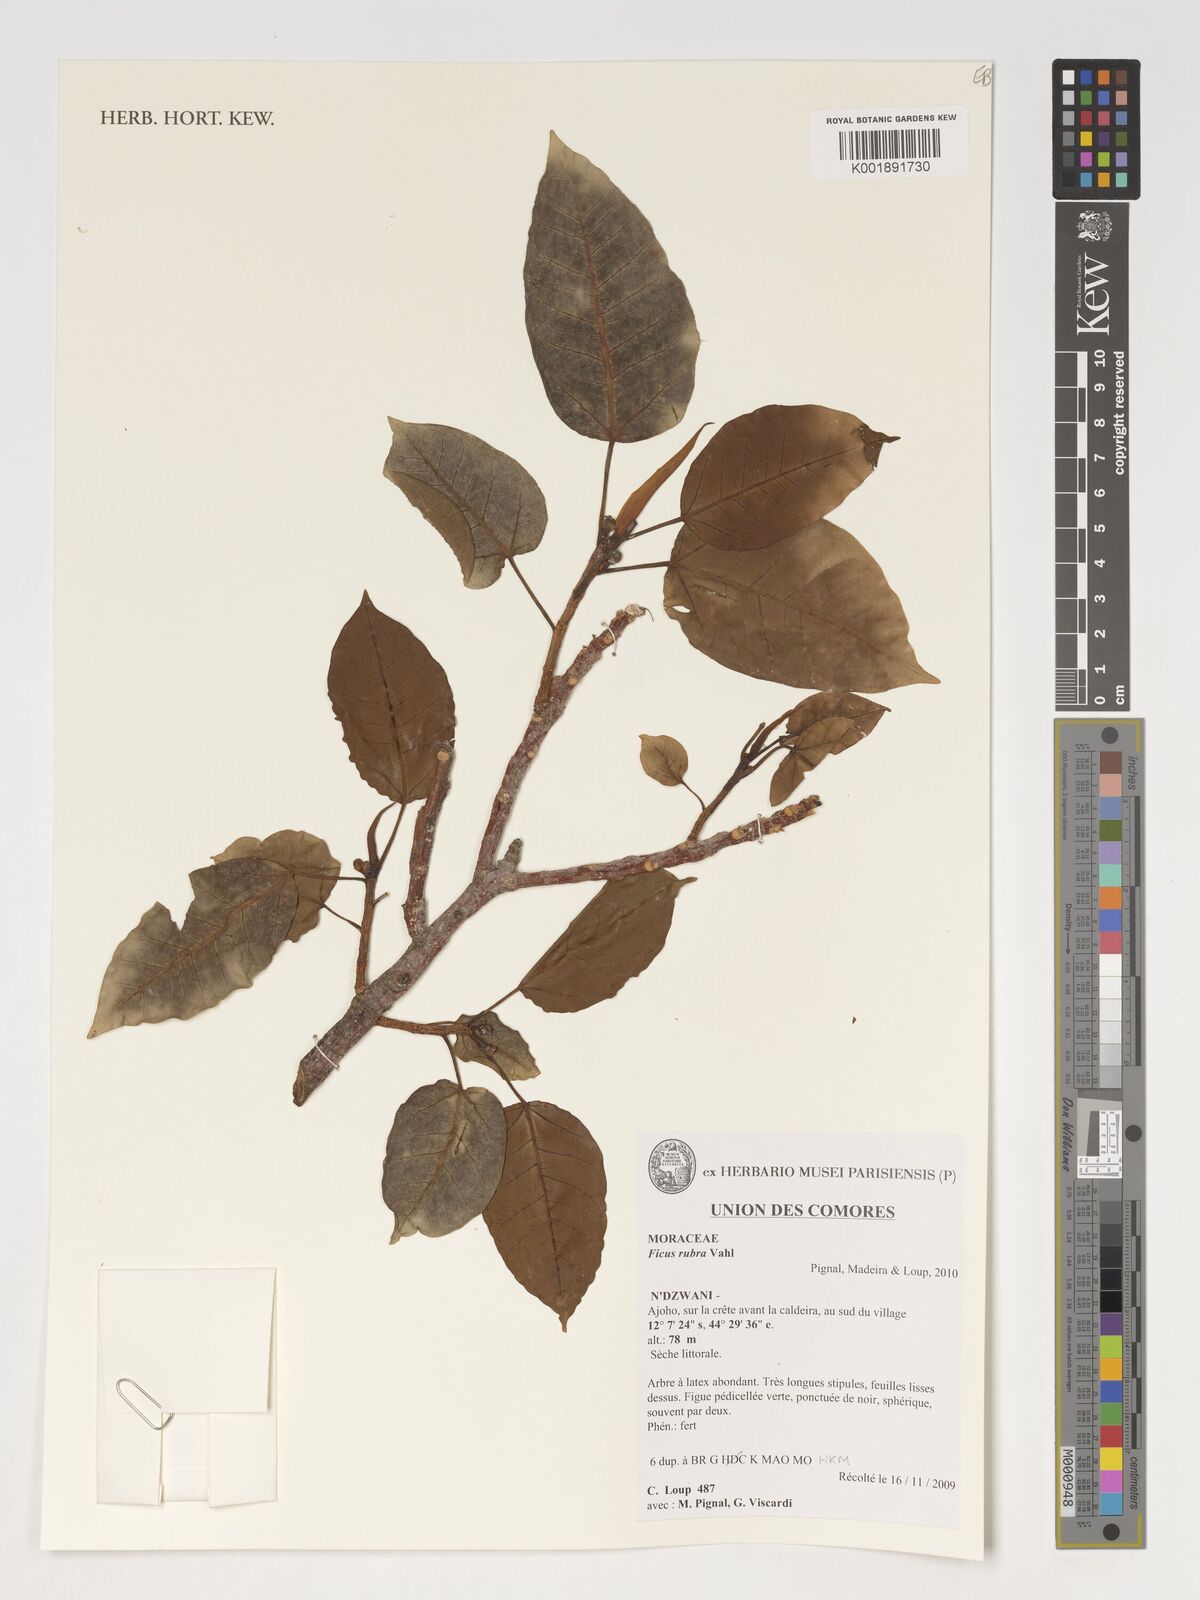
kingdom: Plantae
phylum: Tracheophyta
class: Magnoliopsida
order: Rosales
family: Moraceae
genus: Ficus
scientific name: Ficus rubra
